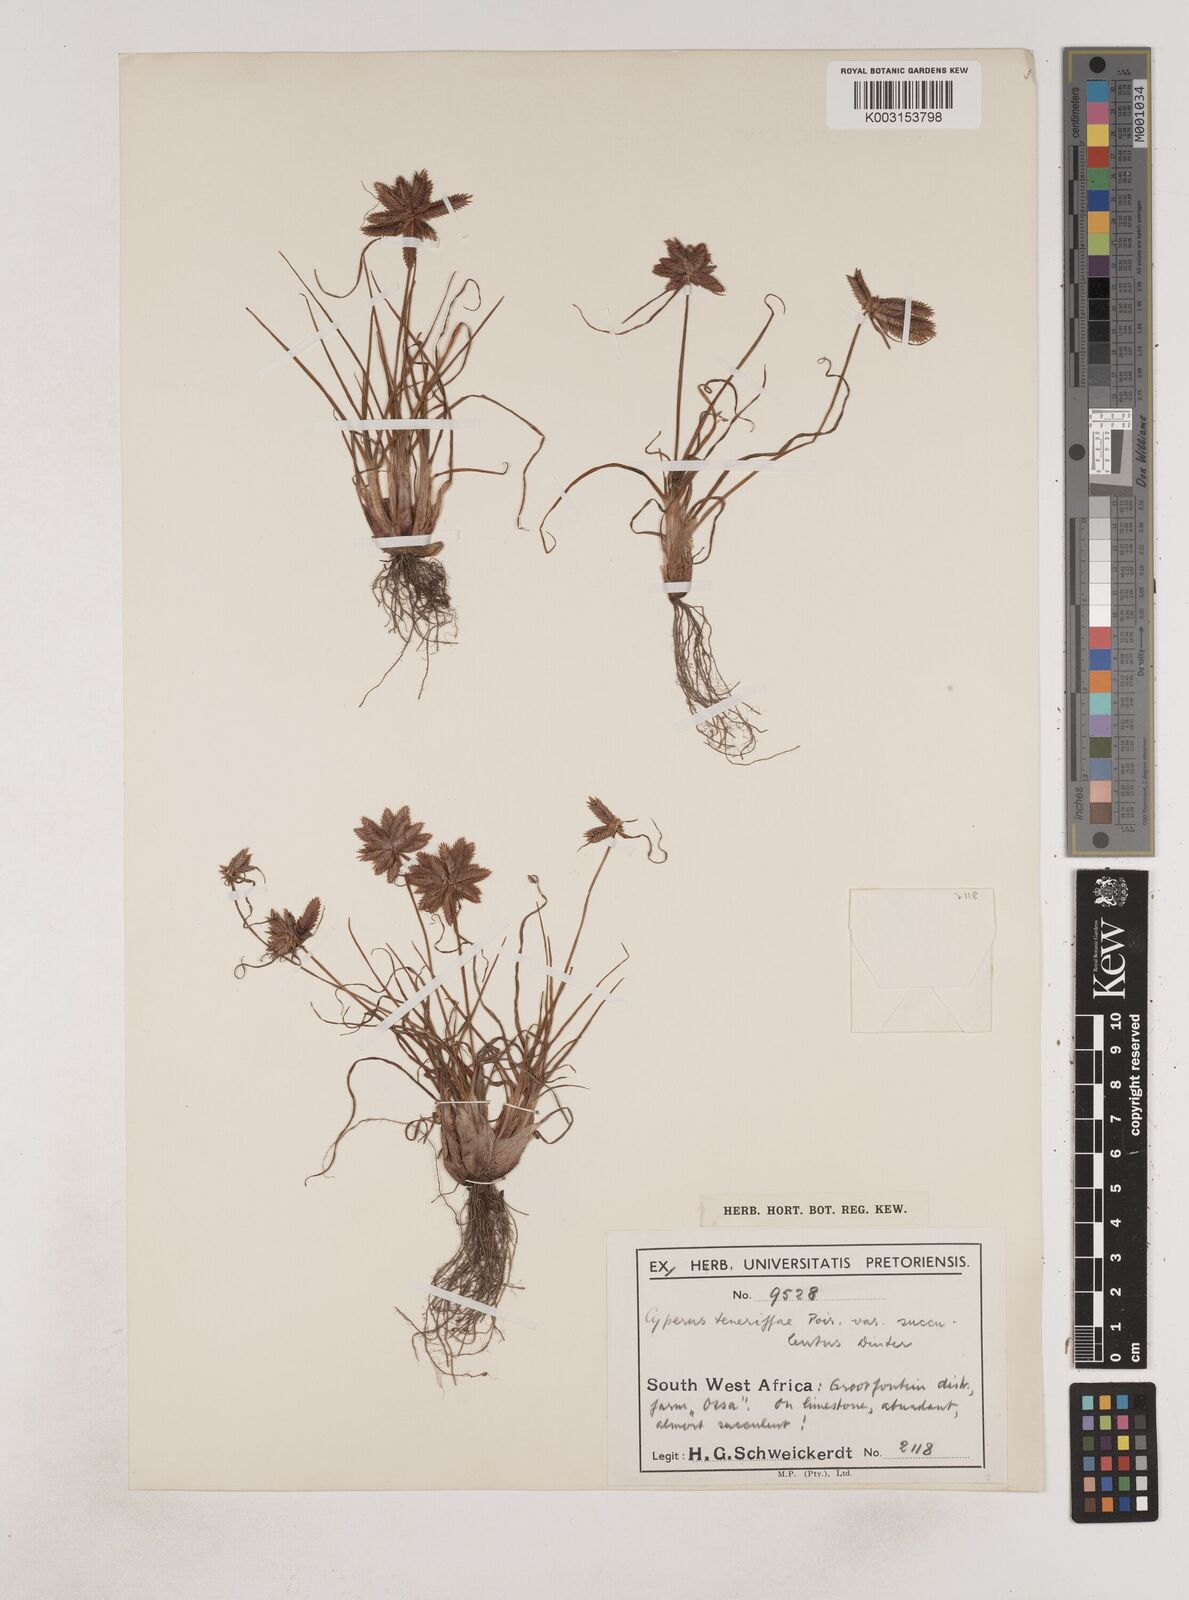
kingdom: Plantae
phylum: Tracheophyta
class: Liliopsida
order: Poales
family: Cyperaceae
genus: Cyperus
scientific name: Cyperus rubicundus
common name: Coco-grass
